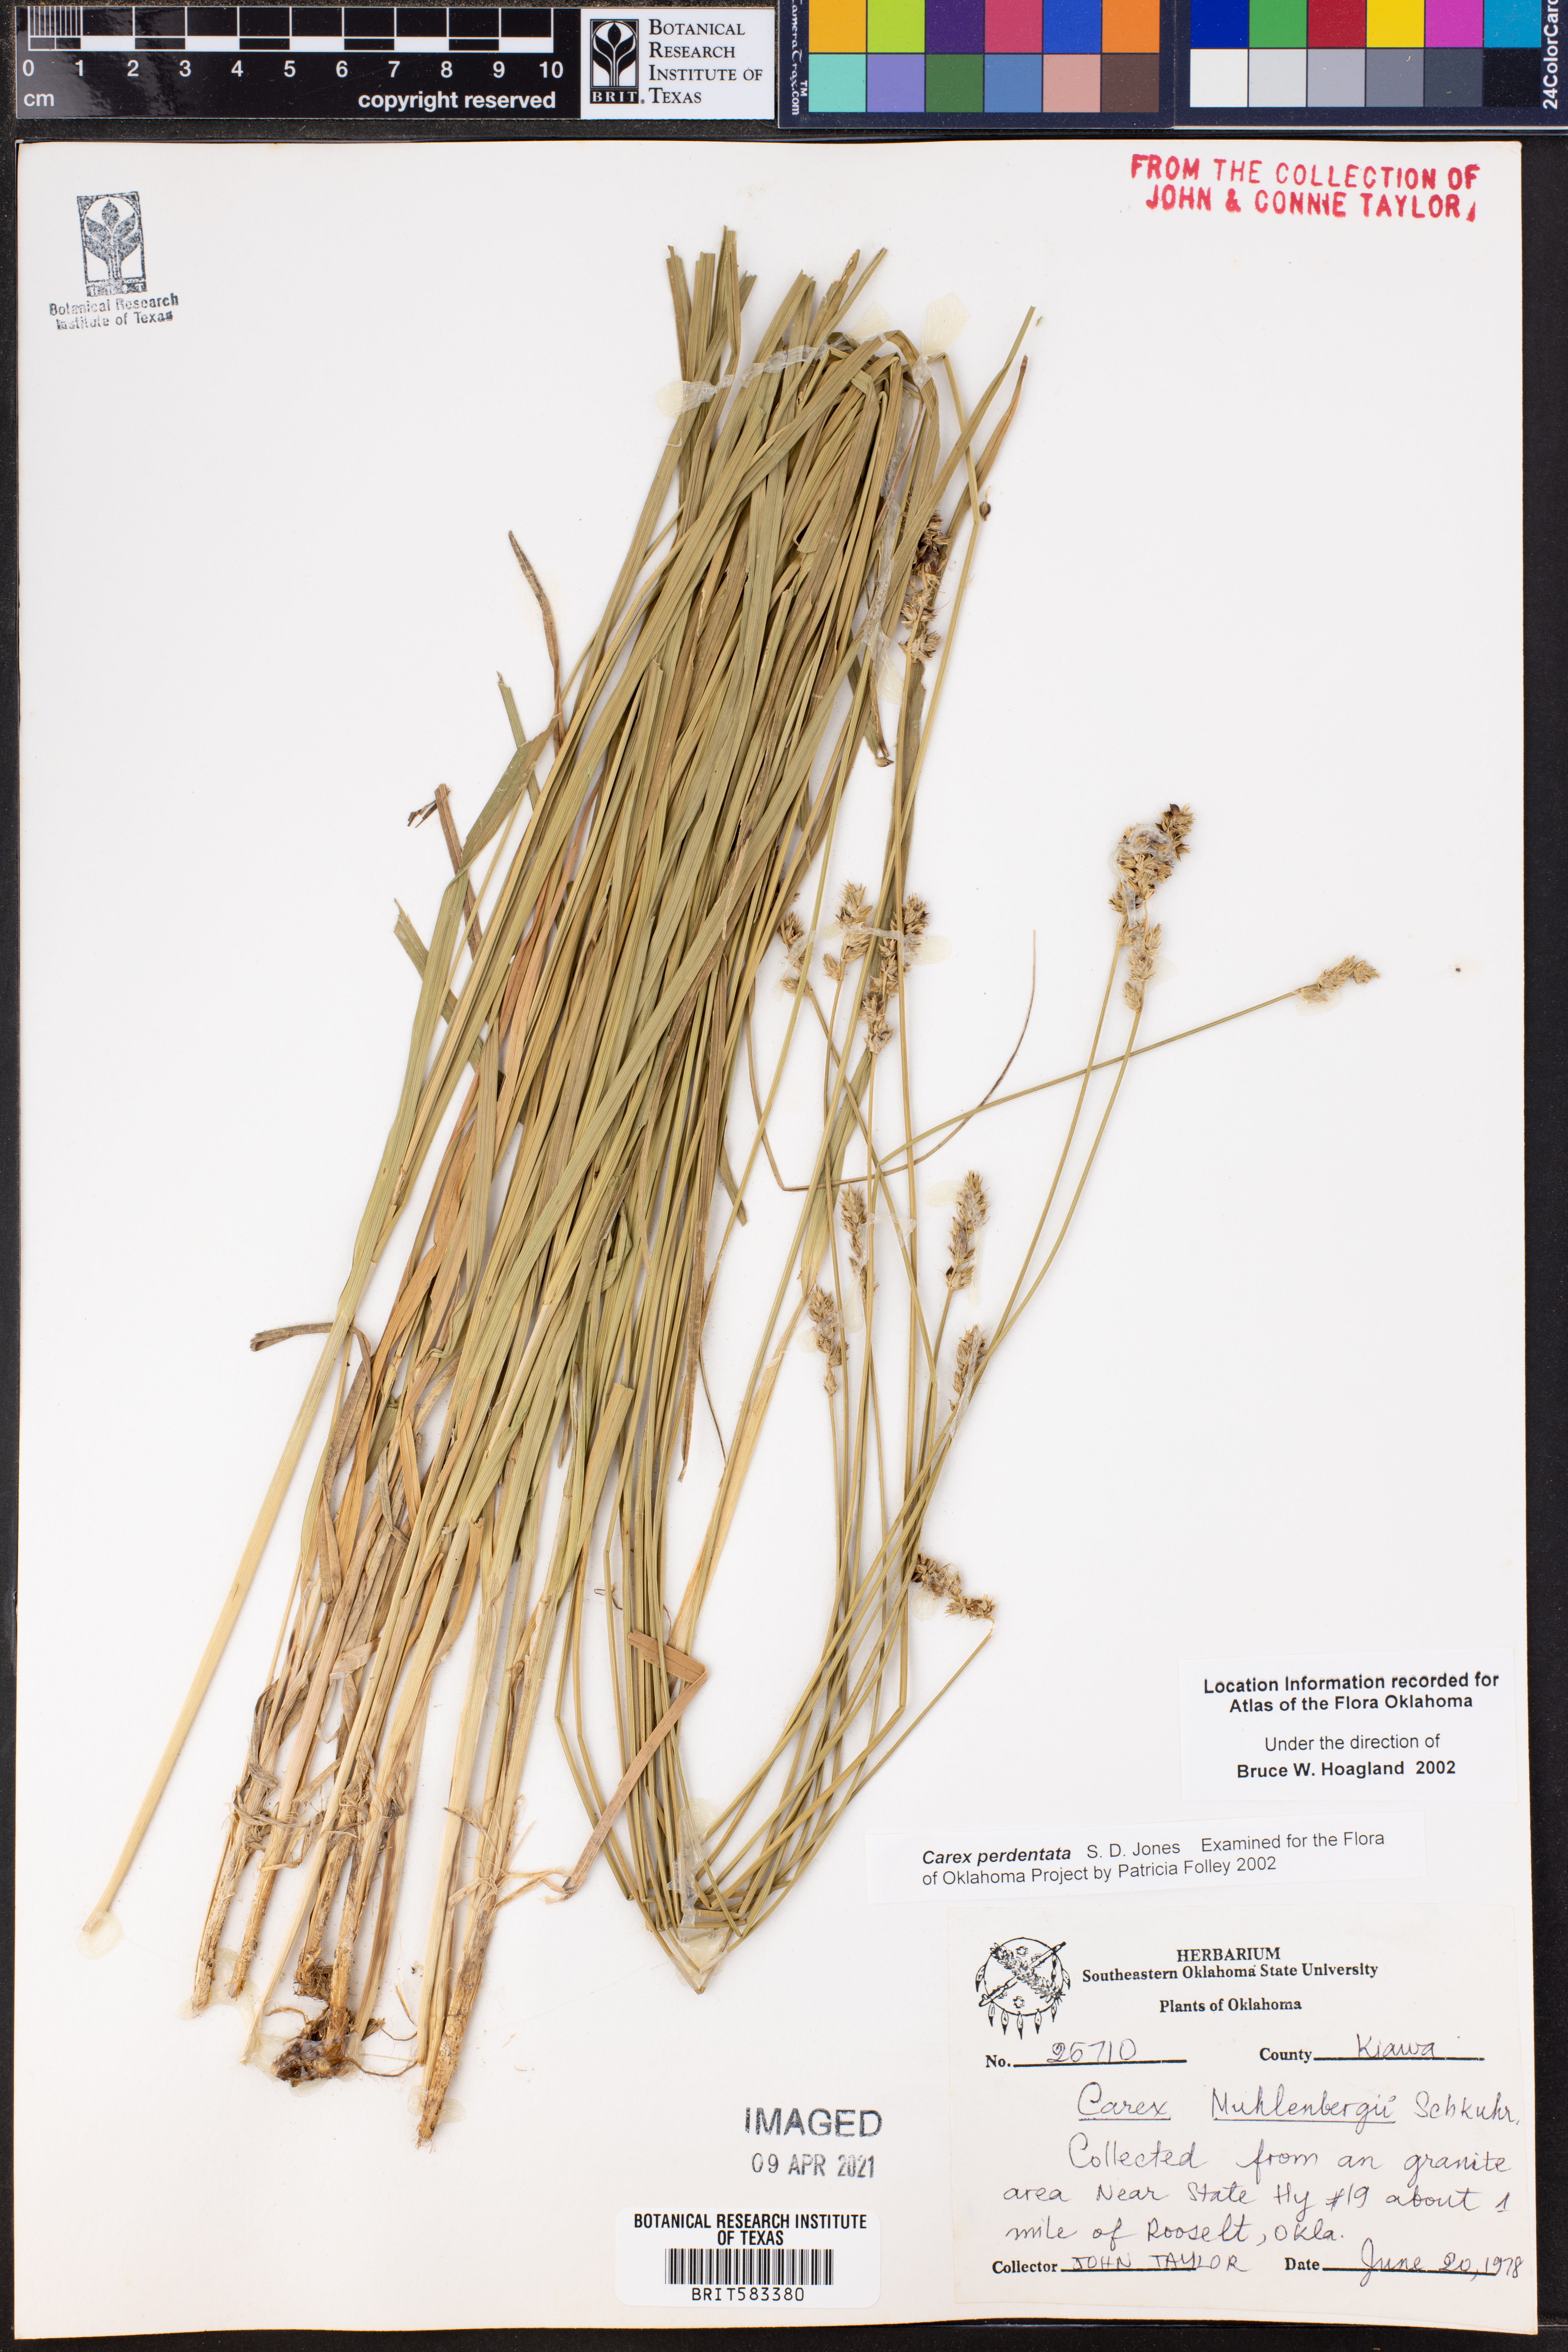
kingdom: Plantae
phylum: Tracheophyta
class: Liliopsida
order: Poales
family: Cyperaceae
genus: Carex
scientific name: Carex perdentata
